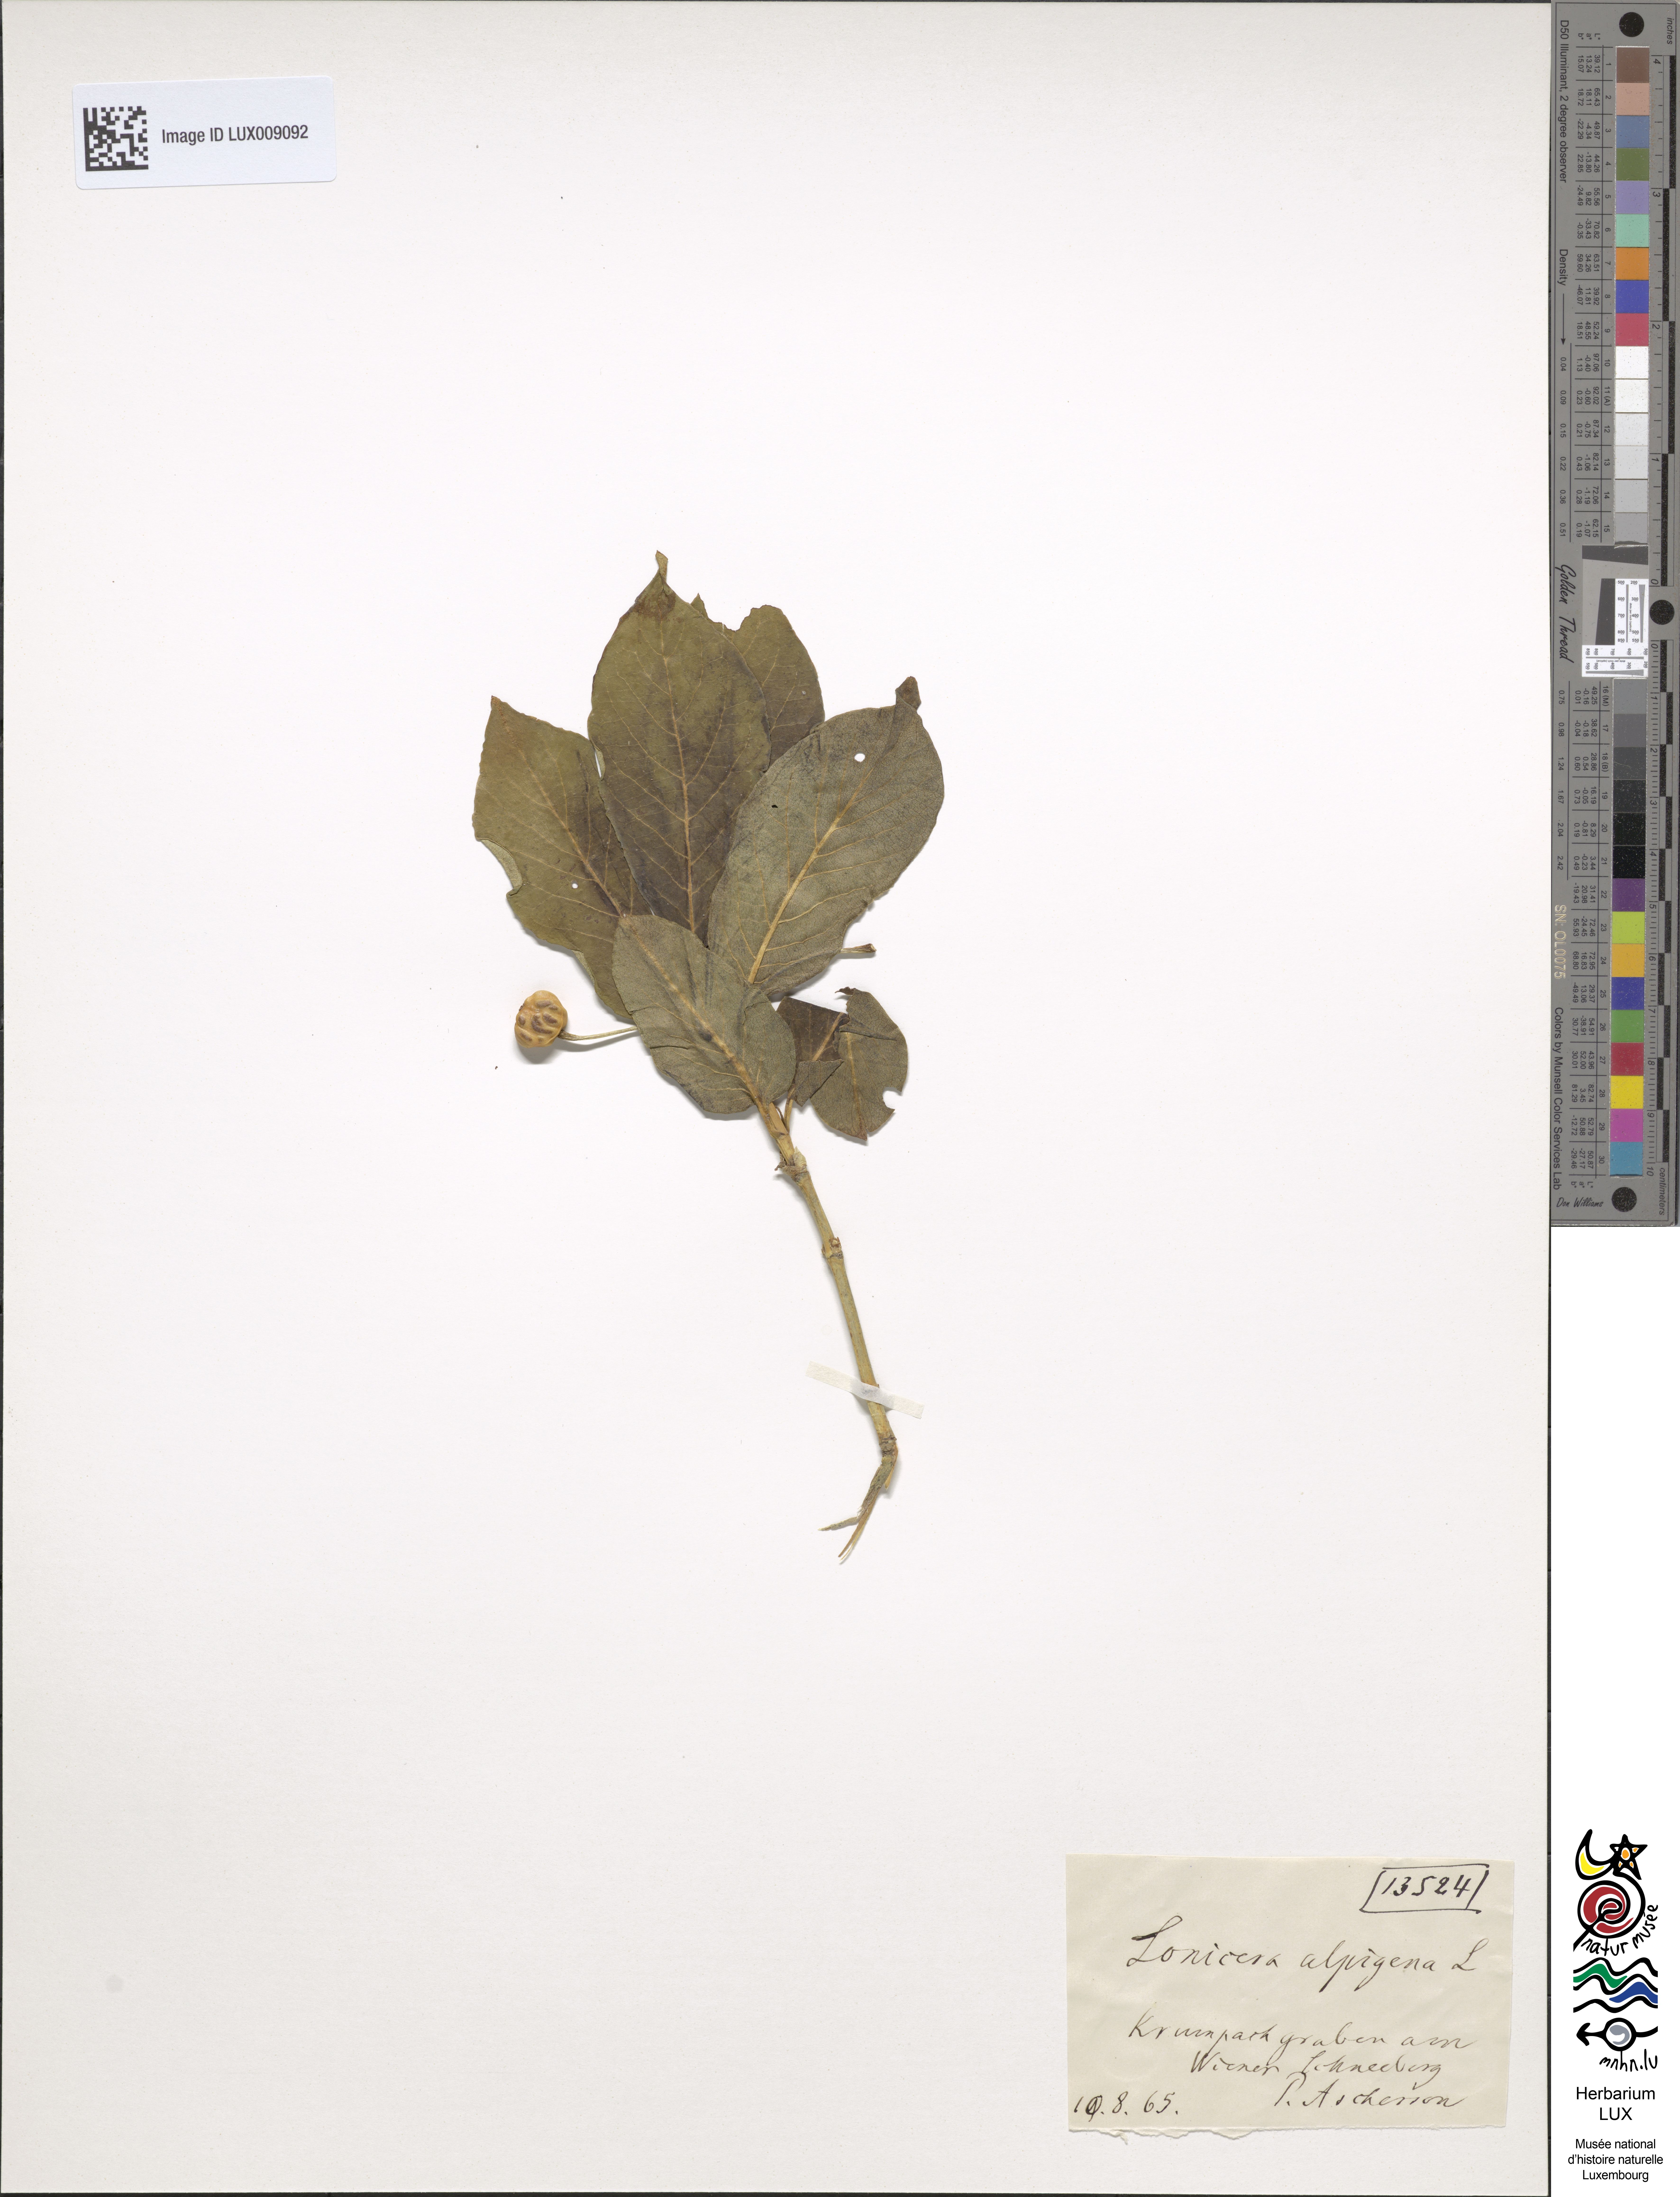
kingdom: Plantae
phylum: Tracheophyta
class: Magnoliopsida
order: Dipsacales
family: Caprifoliaceae
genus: Lonicera
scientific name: Lonicera alpigena
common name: Alpine honeysuckle
